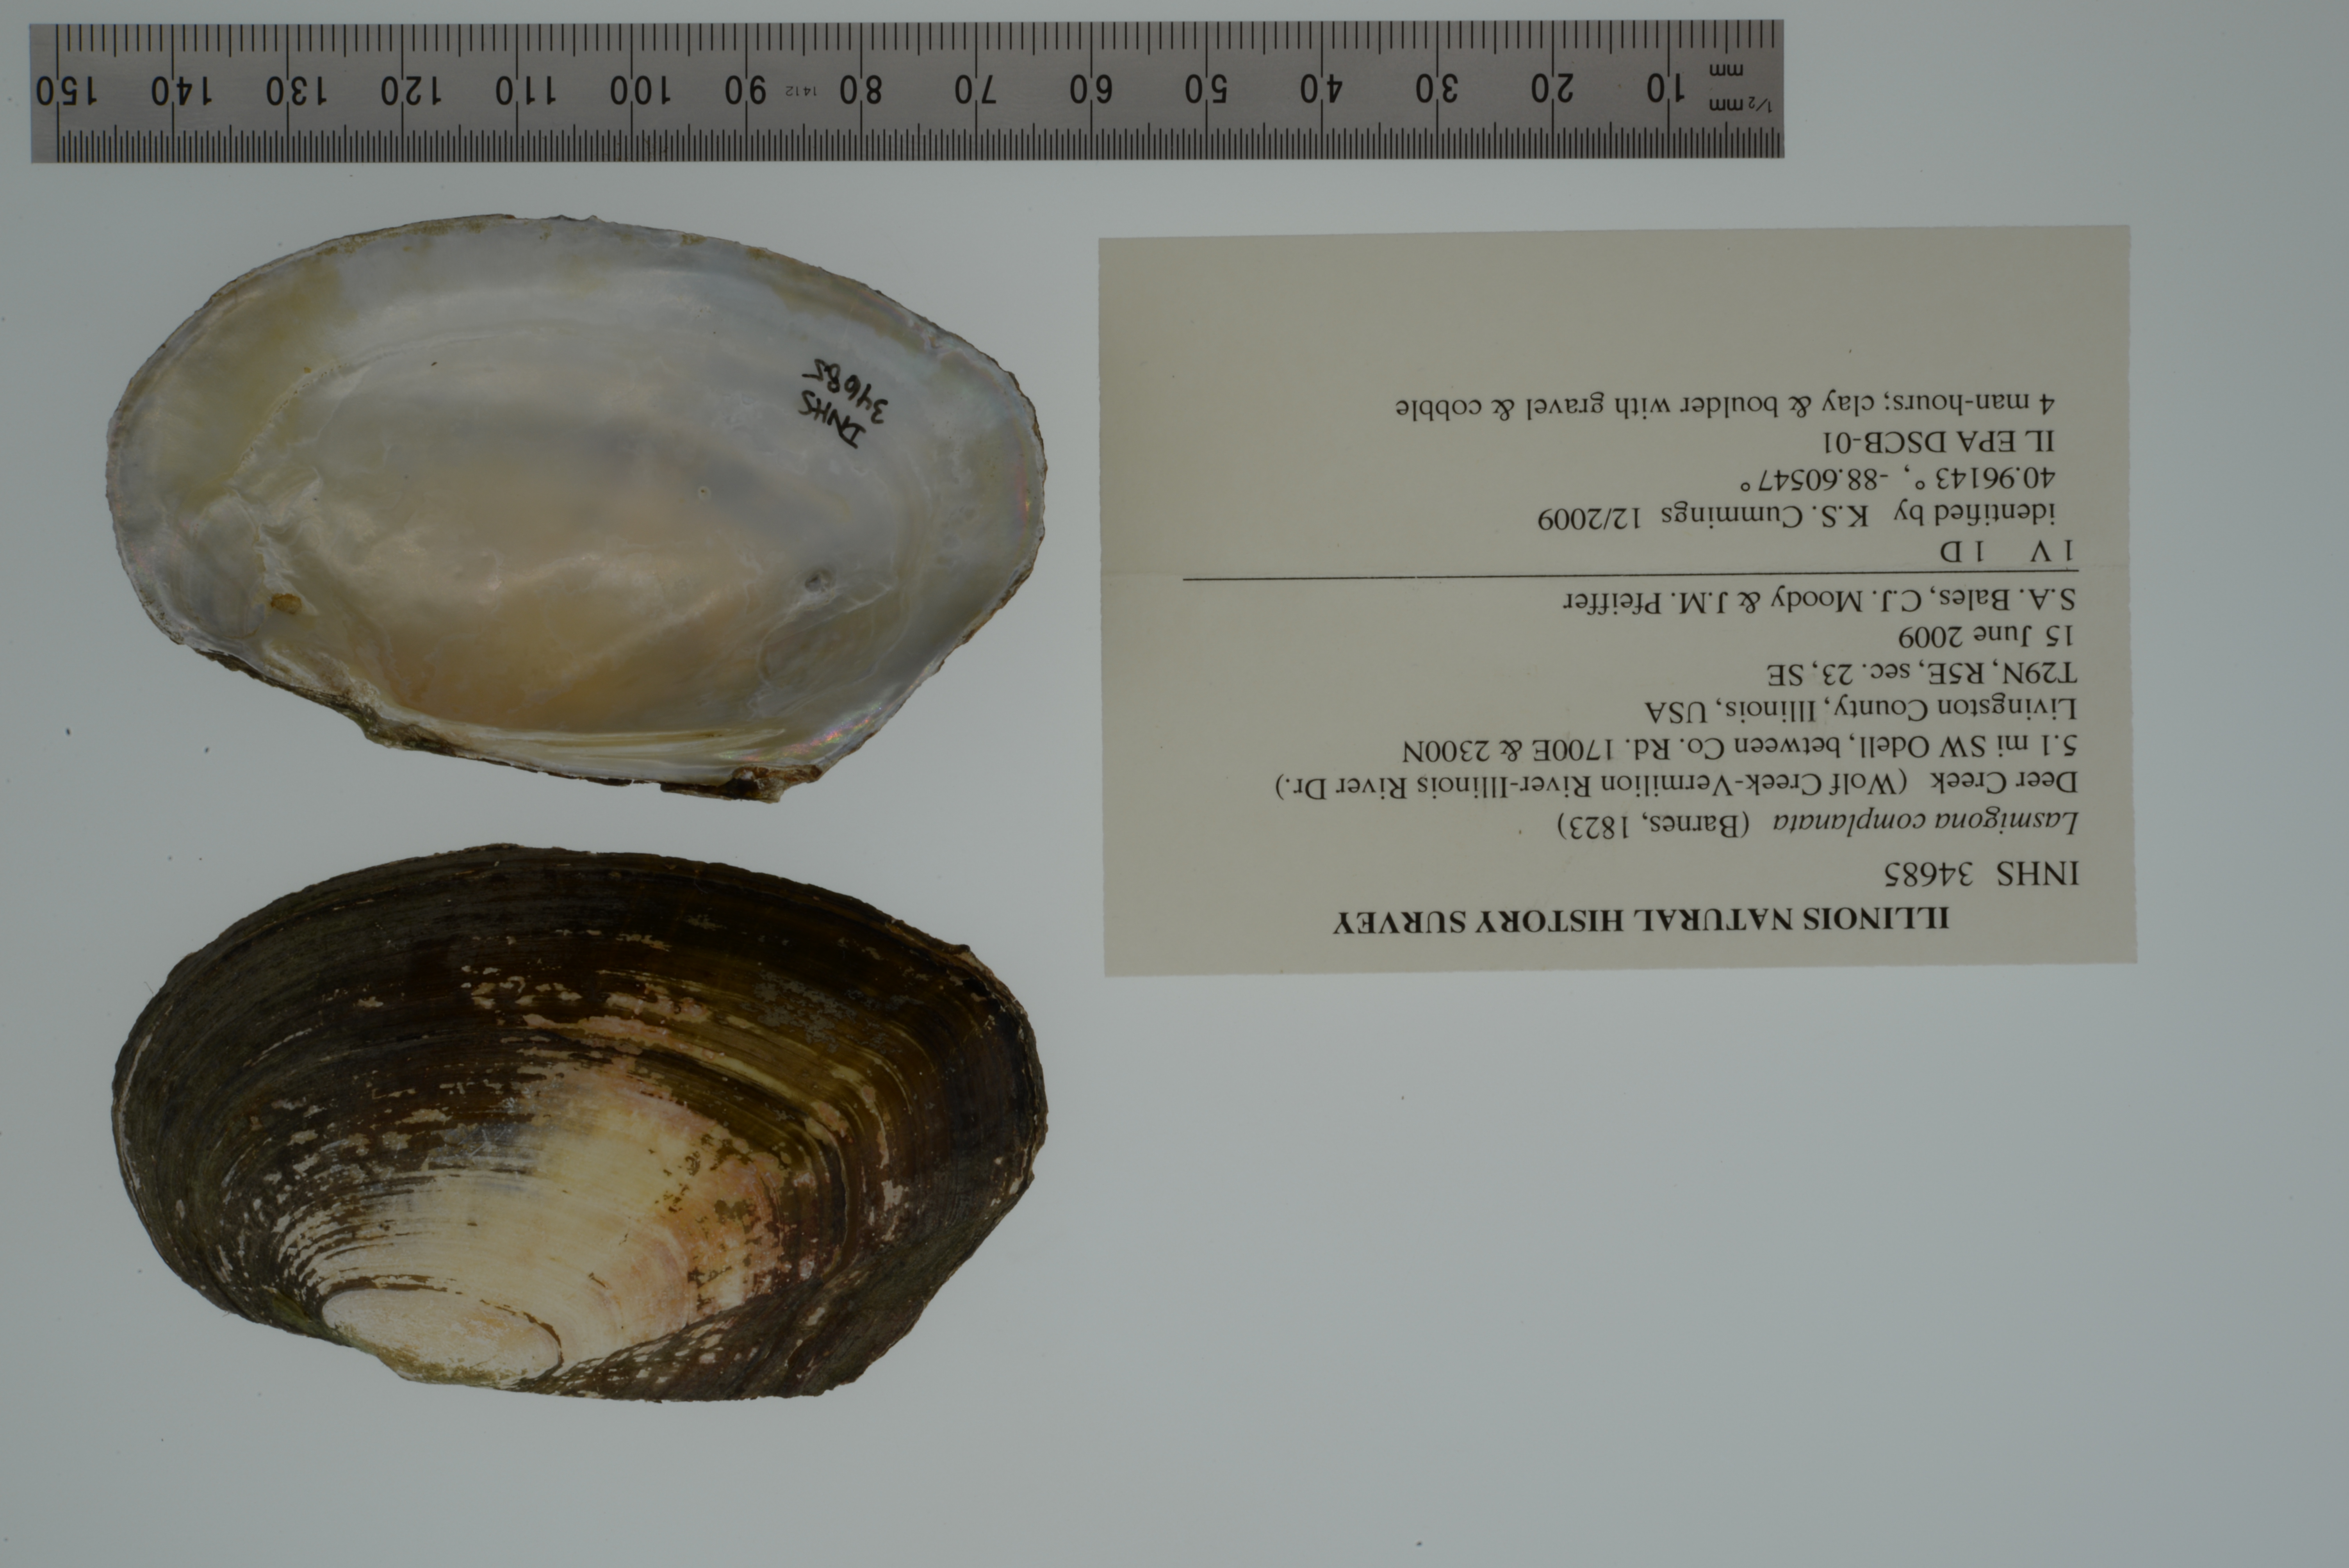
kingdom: Animalia
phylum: Mollusca
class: Bivalvia
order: Unionida
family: Unionidae
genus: Lasmigona
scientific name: Lasmigona compressa
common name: Creek heelsplitter
